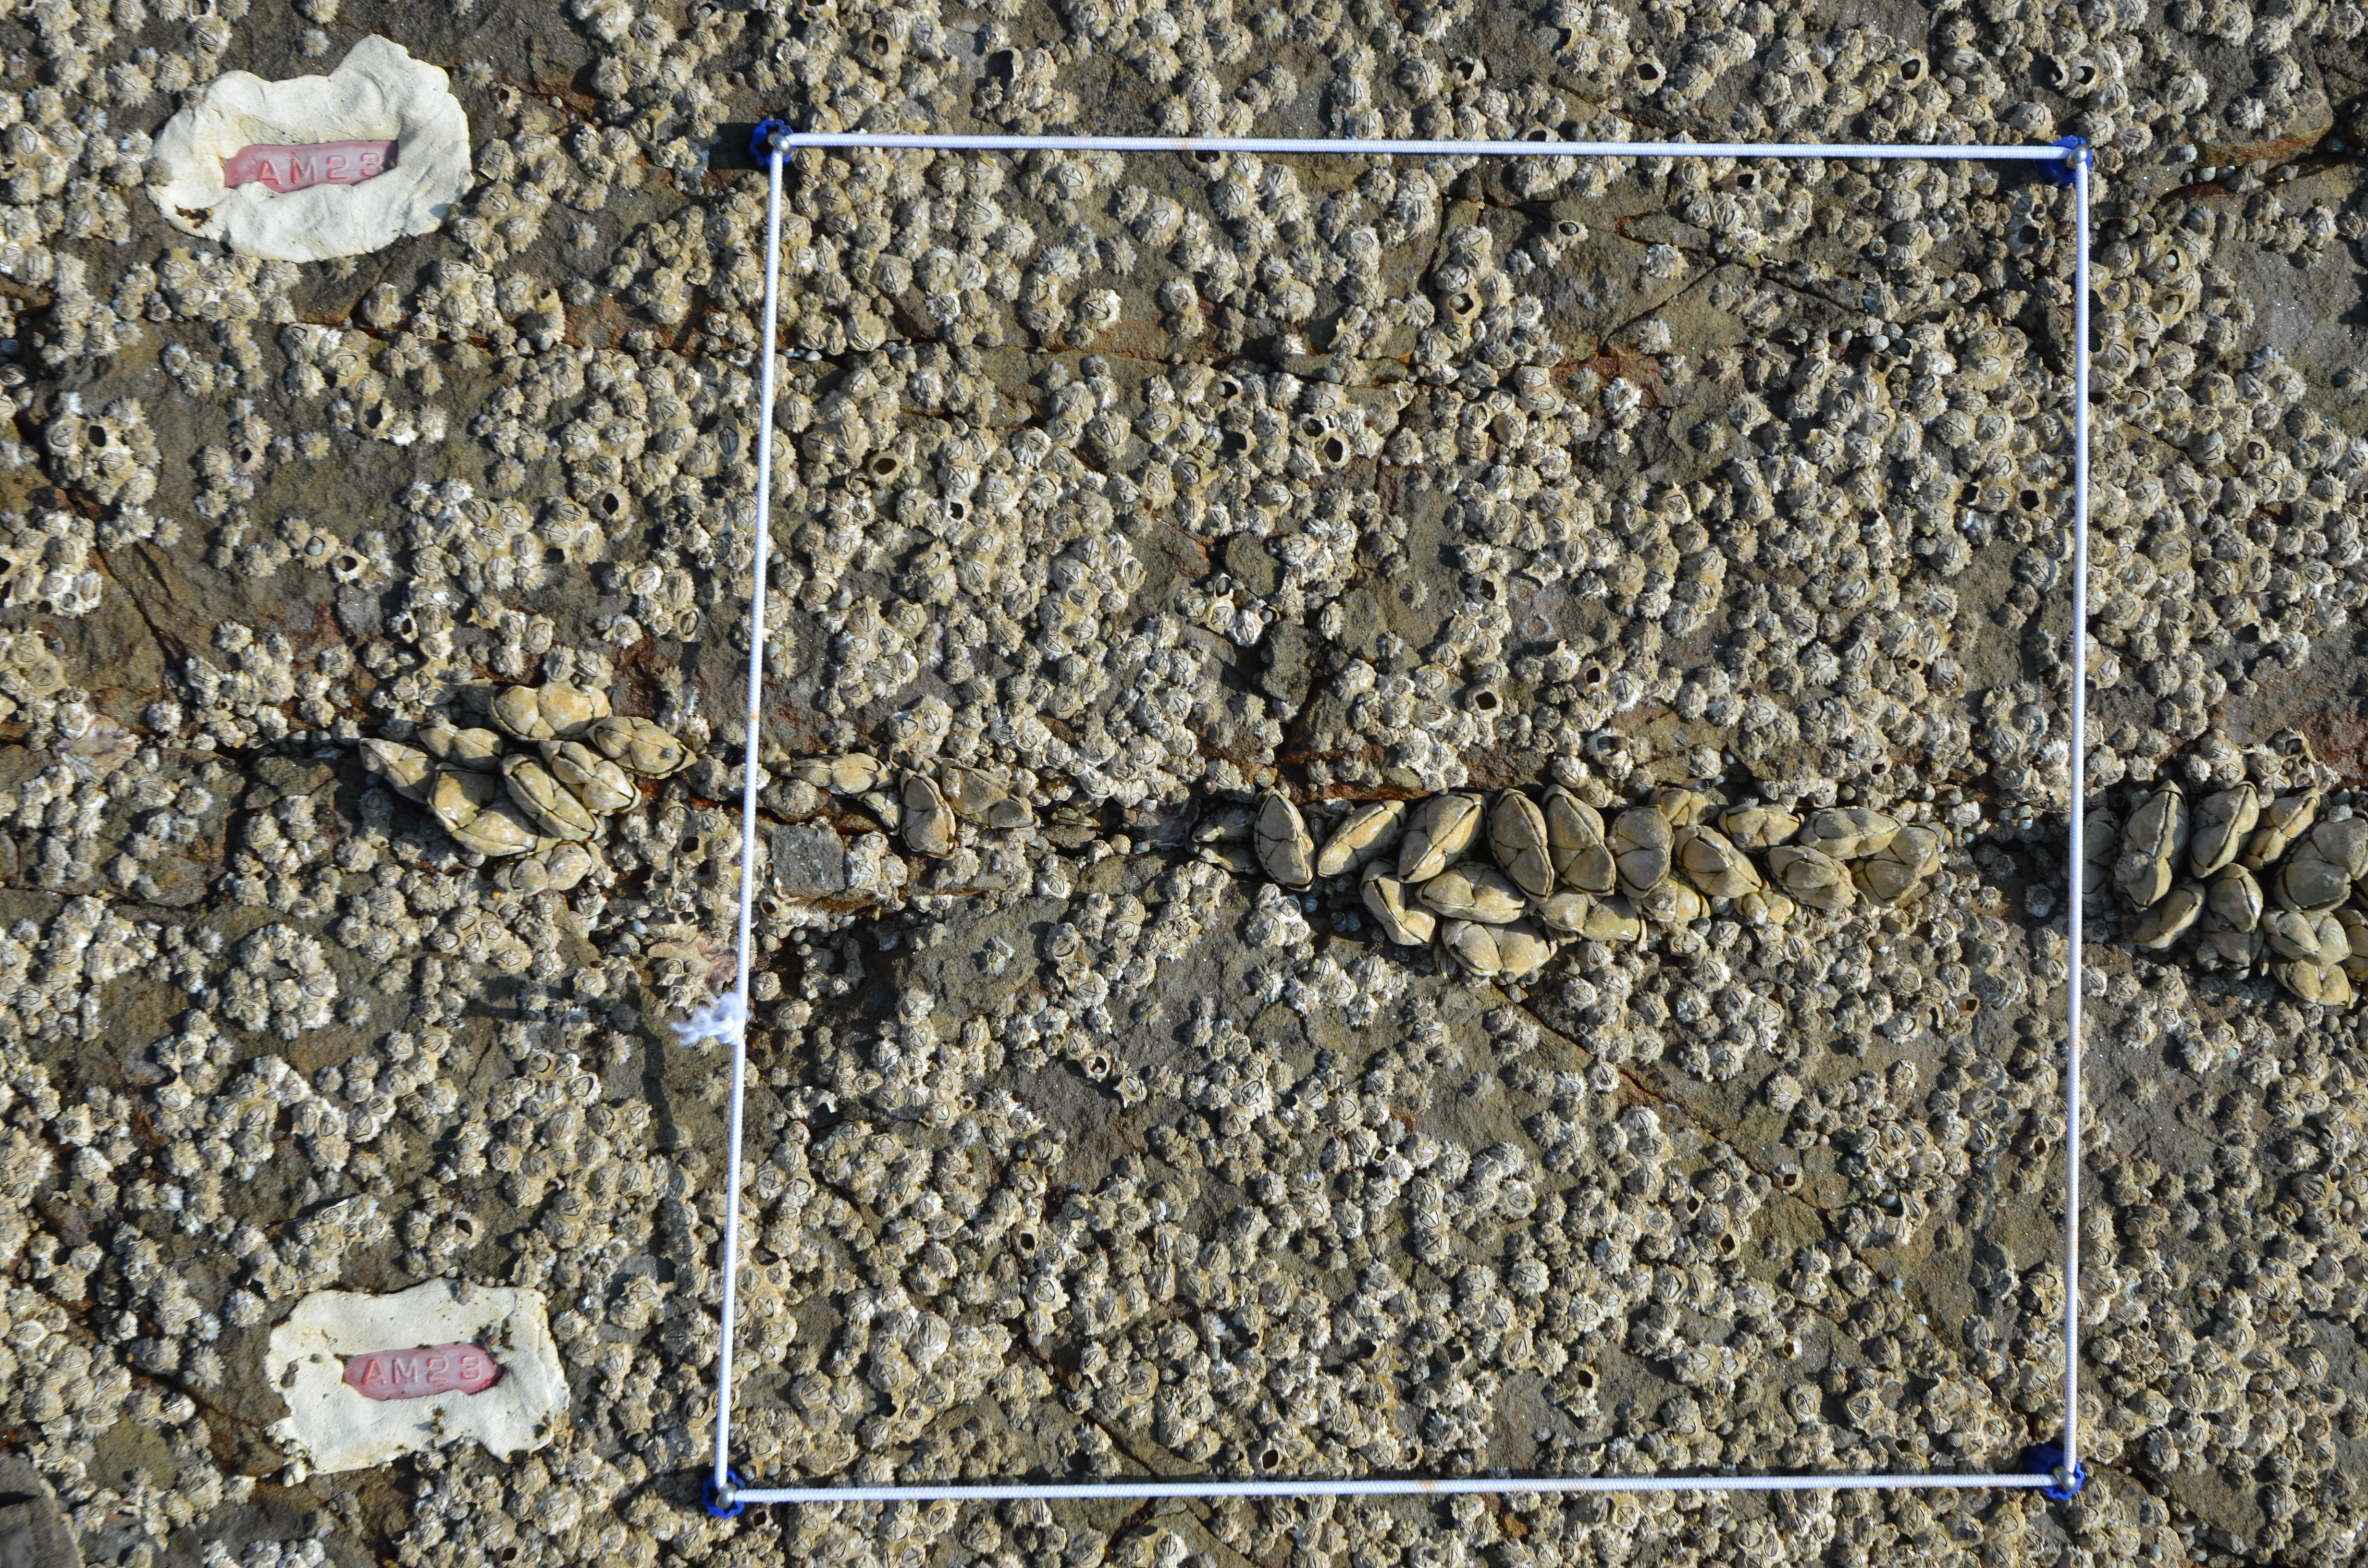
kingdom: Animalia
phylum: Arthropoda
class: Maxillopoda
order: Sessilia
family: Chthamalidae
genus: Chthamalus
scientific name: Chthamalus challengeri
